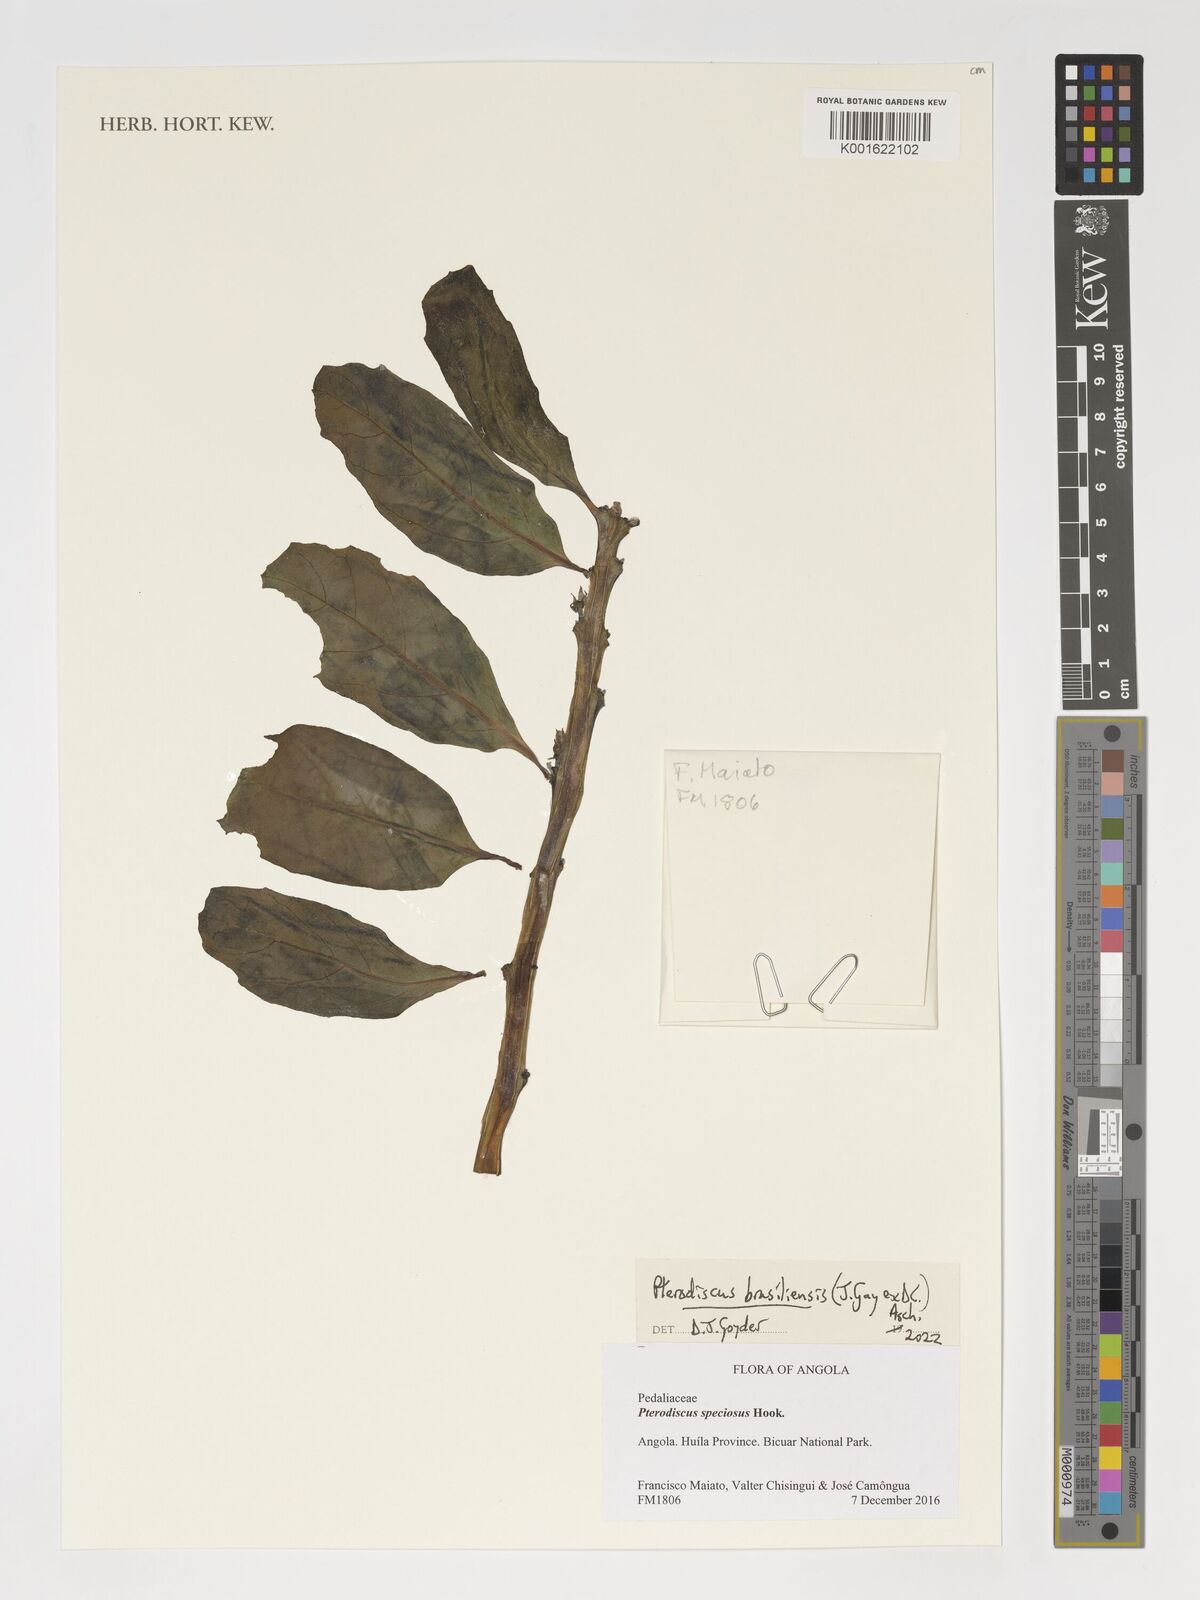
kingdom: Plantae
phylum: Tracheophyta
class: Magnoliopsida
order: Lamiales
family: Pedaliaceae
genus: Pterodiscus
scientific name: Pterodiscus brasiliensis
